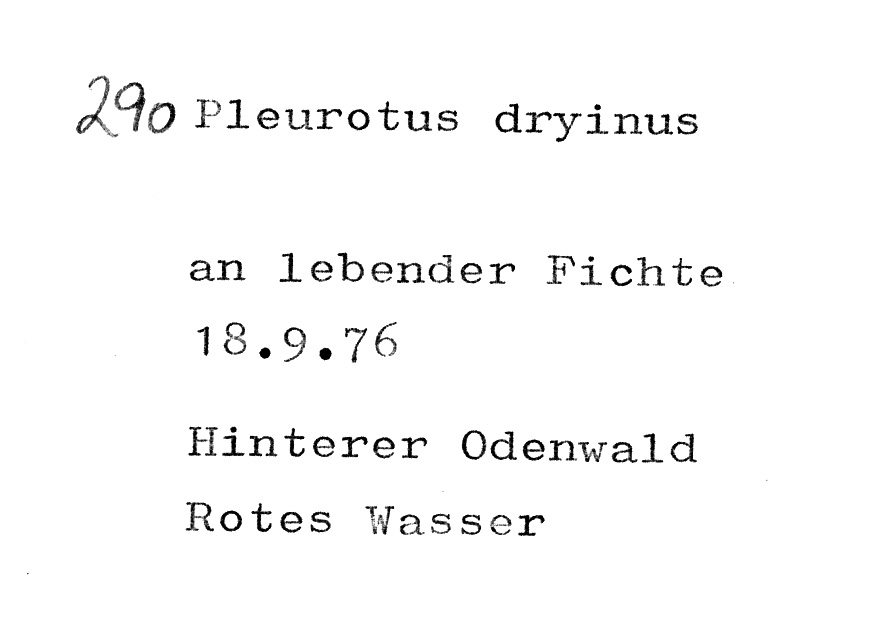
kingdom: Fungi
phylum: Basidiomycota
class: Agaricomycetes
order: Agaricales
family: Pleurotaceae
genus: Pleurotus
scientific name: Pleurotus dryinus
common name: Veiled oyster
